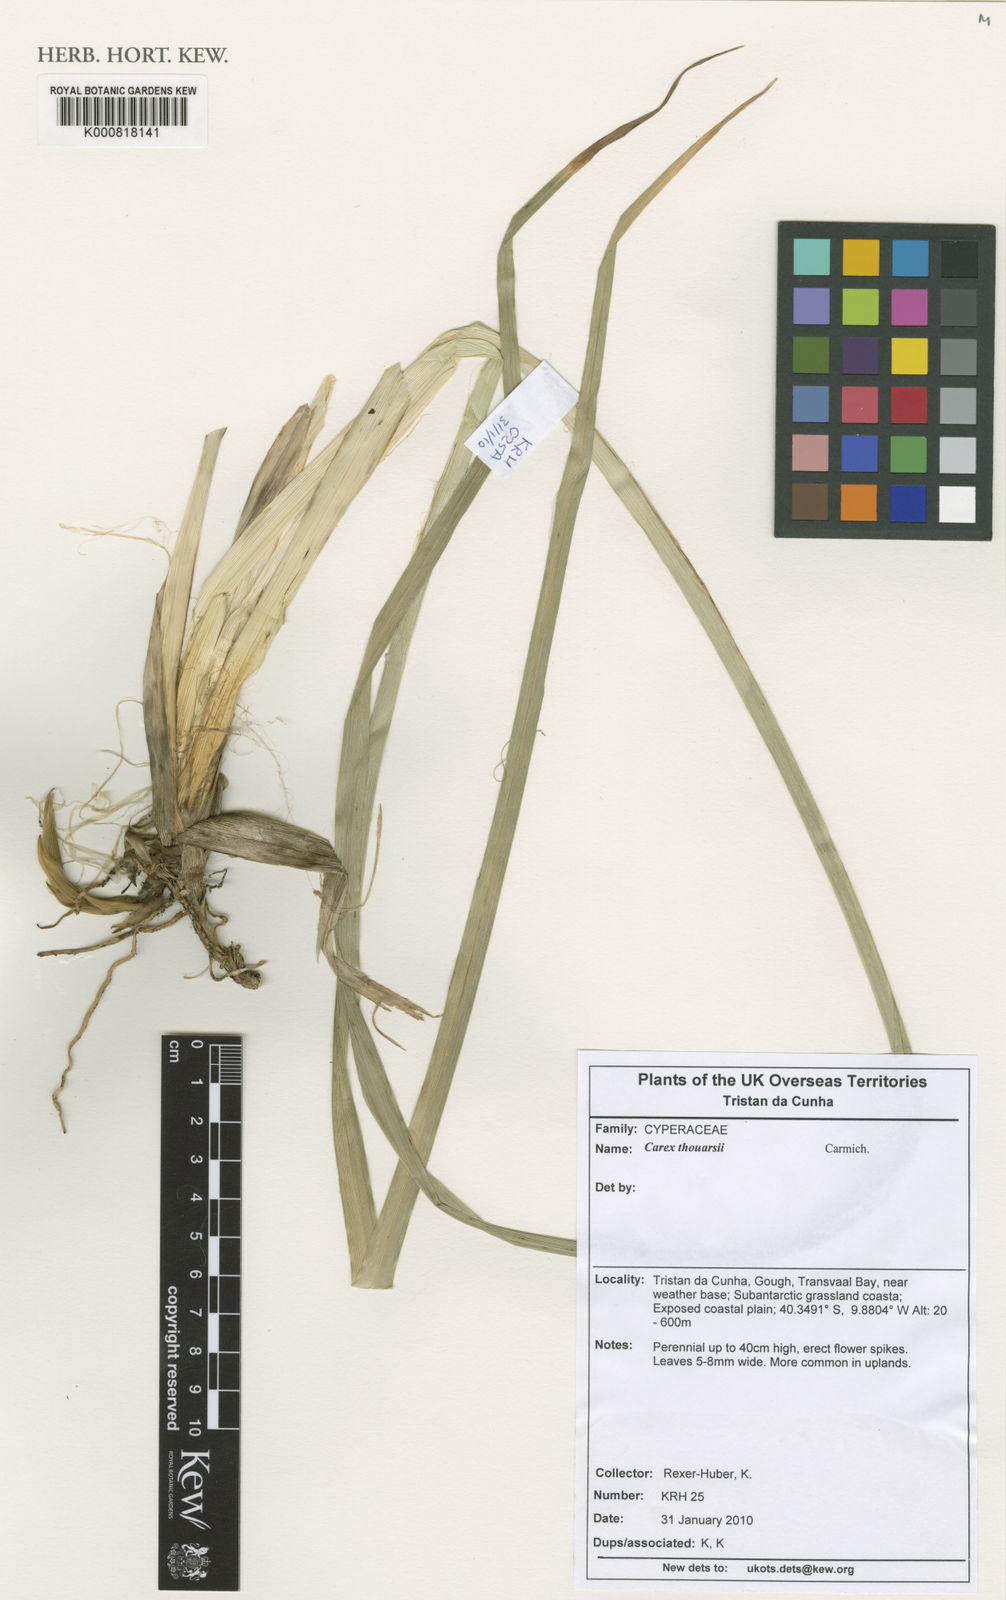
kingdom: Plantae
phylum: Tracheophyta
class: Liliopsida
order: Poales
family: Cyperaceae
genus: Carex
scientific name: Carex thouarsii
